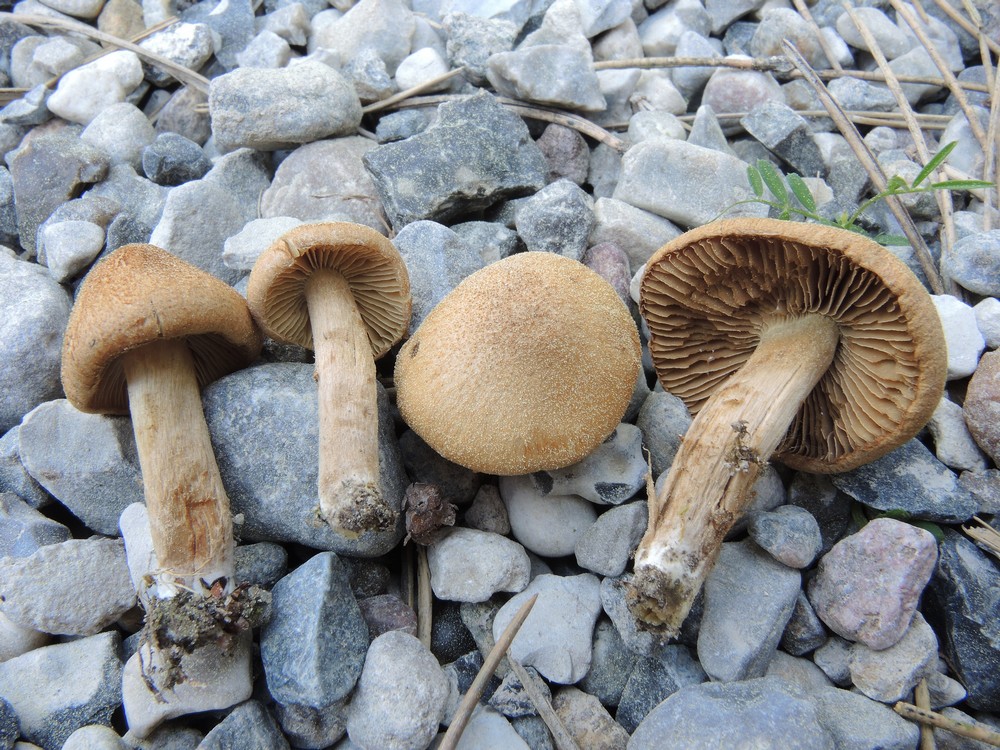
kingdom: Fungi
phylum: Basidiomycota
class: Agaricomycetes
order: Agaricales
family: Inocybaceae
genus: Inocybe
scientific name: Inocybe dulcamara
